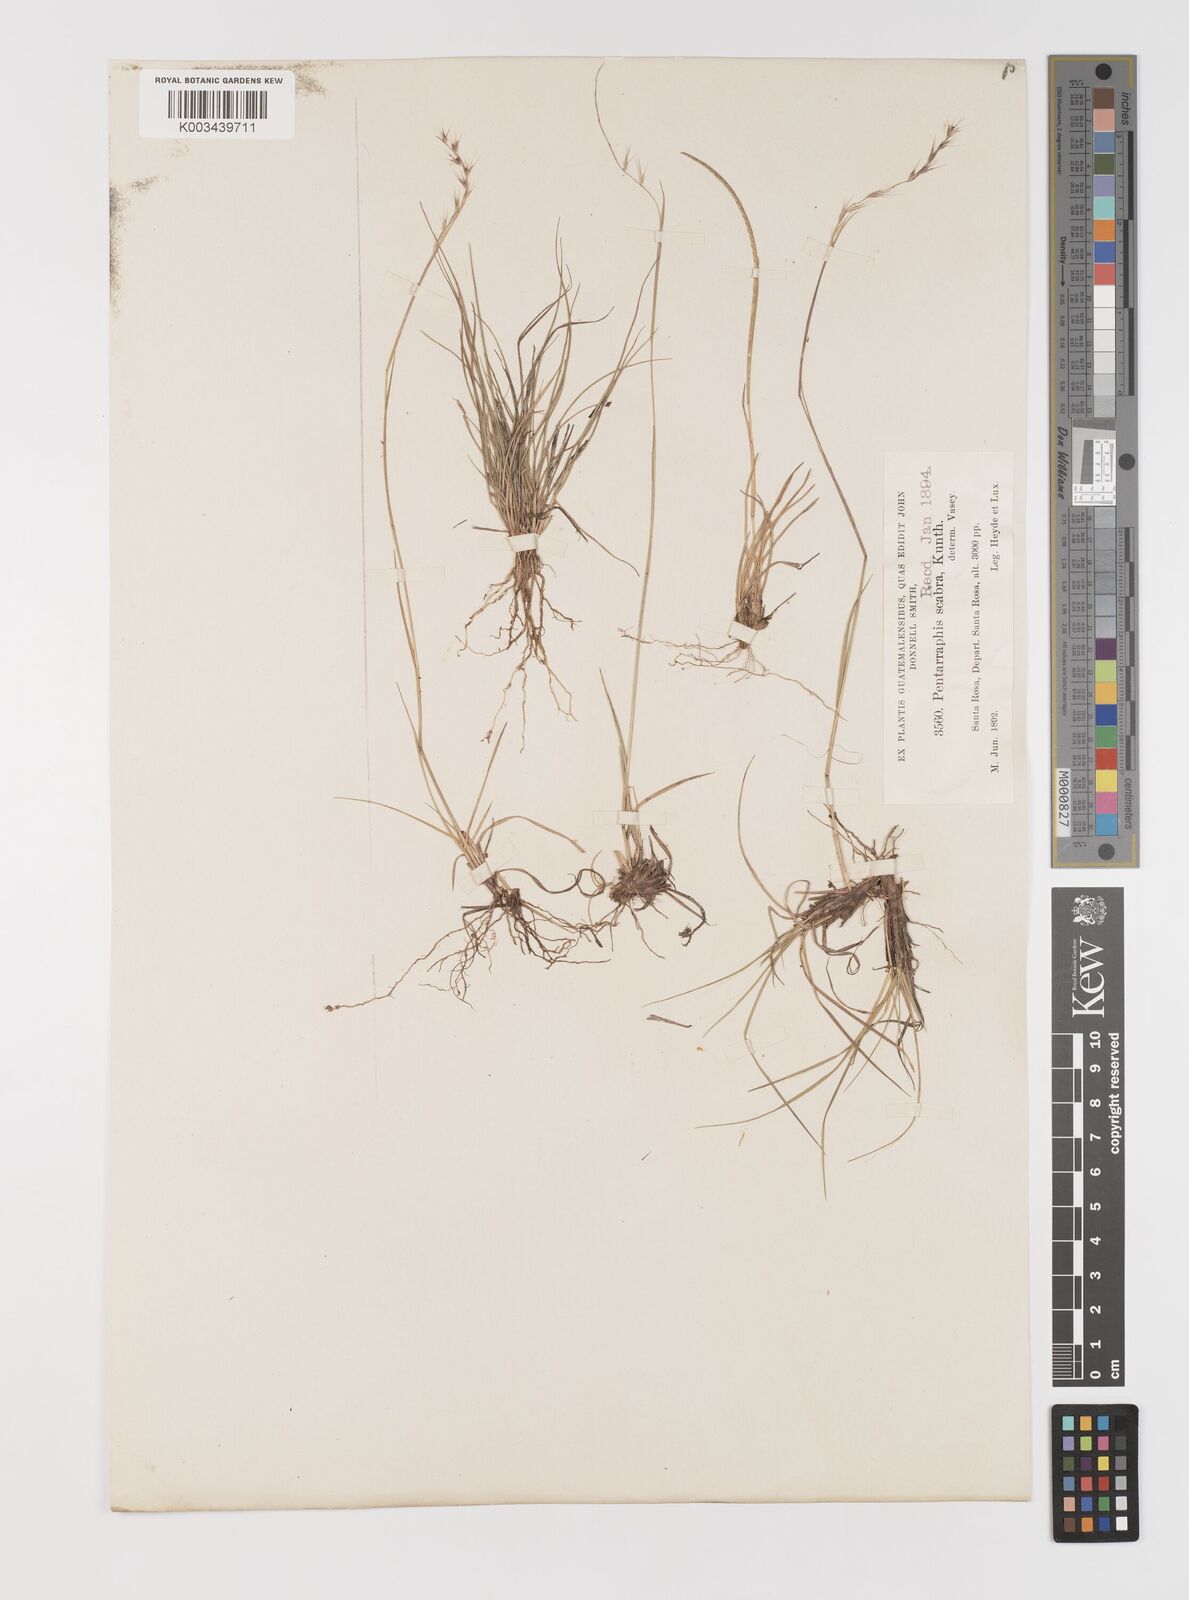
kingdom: Plantae
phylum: Tracheophyta
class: Liliopsida
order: Poales
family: Poaceae
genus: Bouteloua
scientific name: Bouteloua scabra
